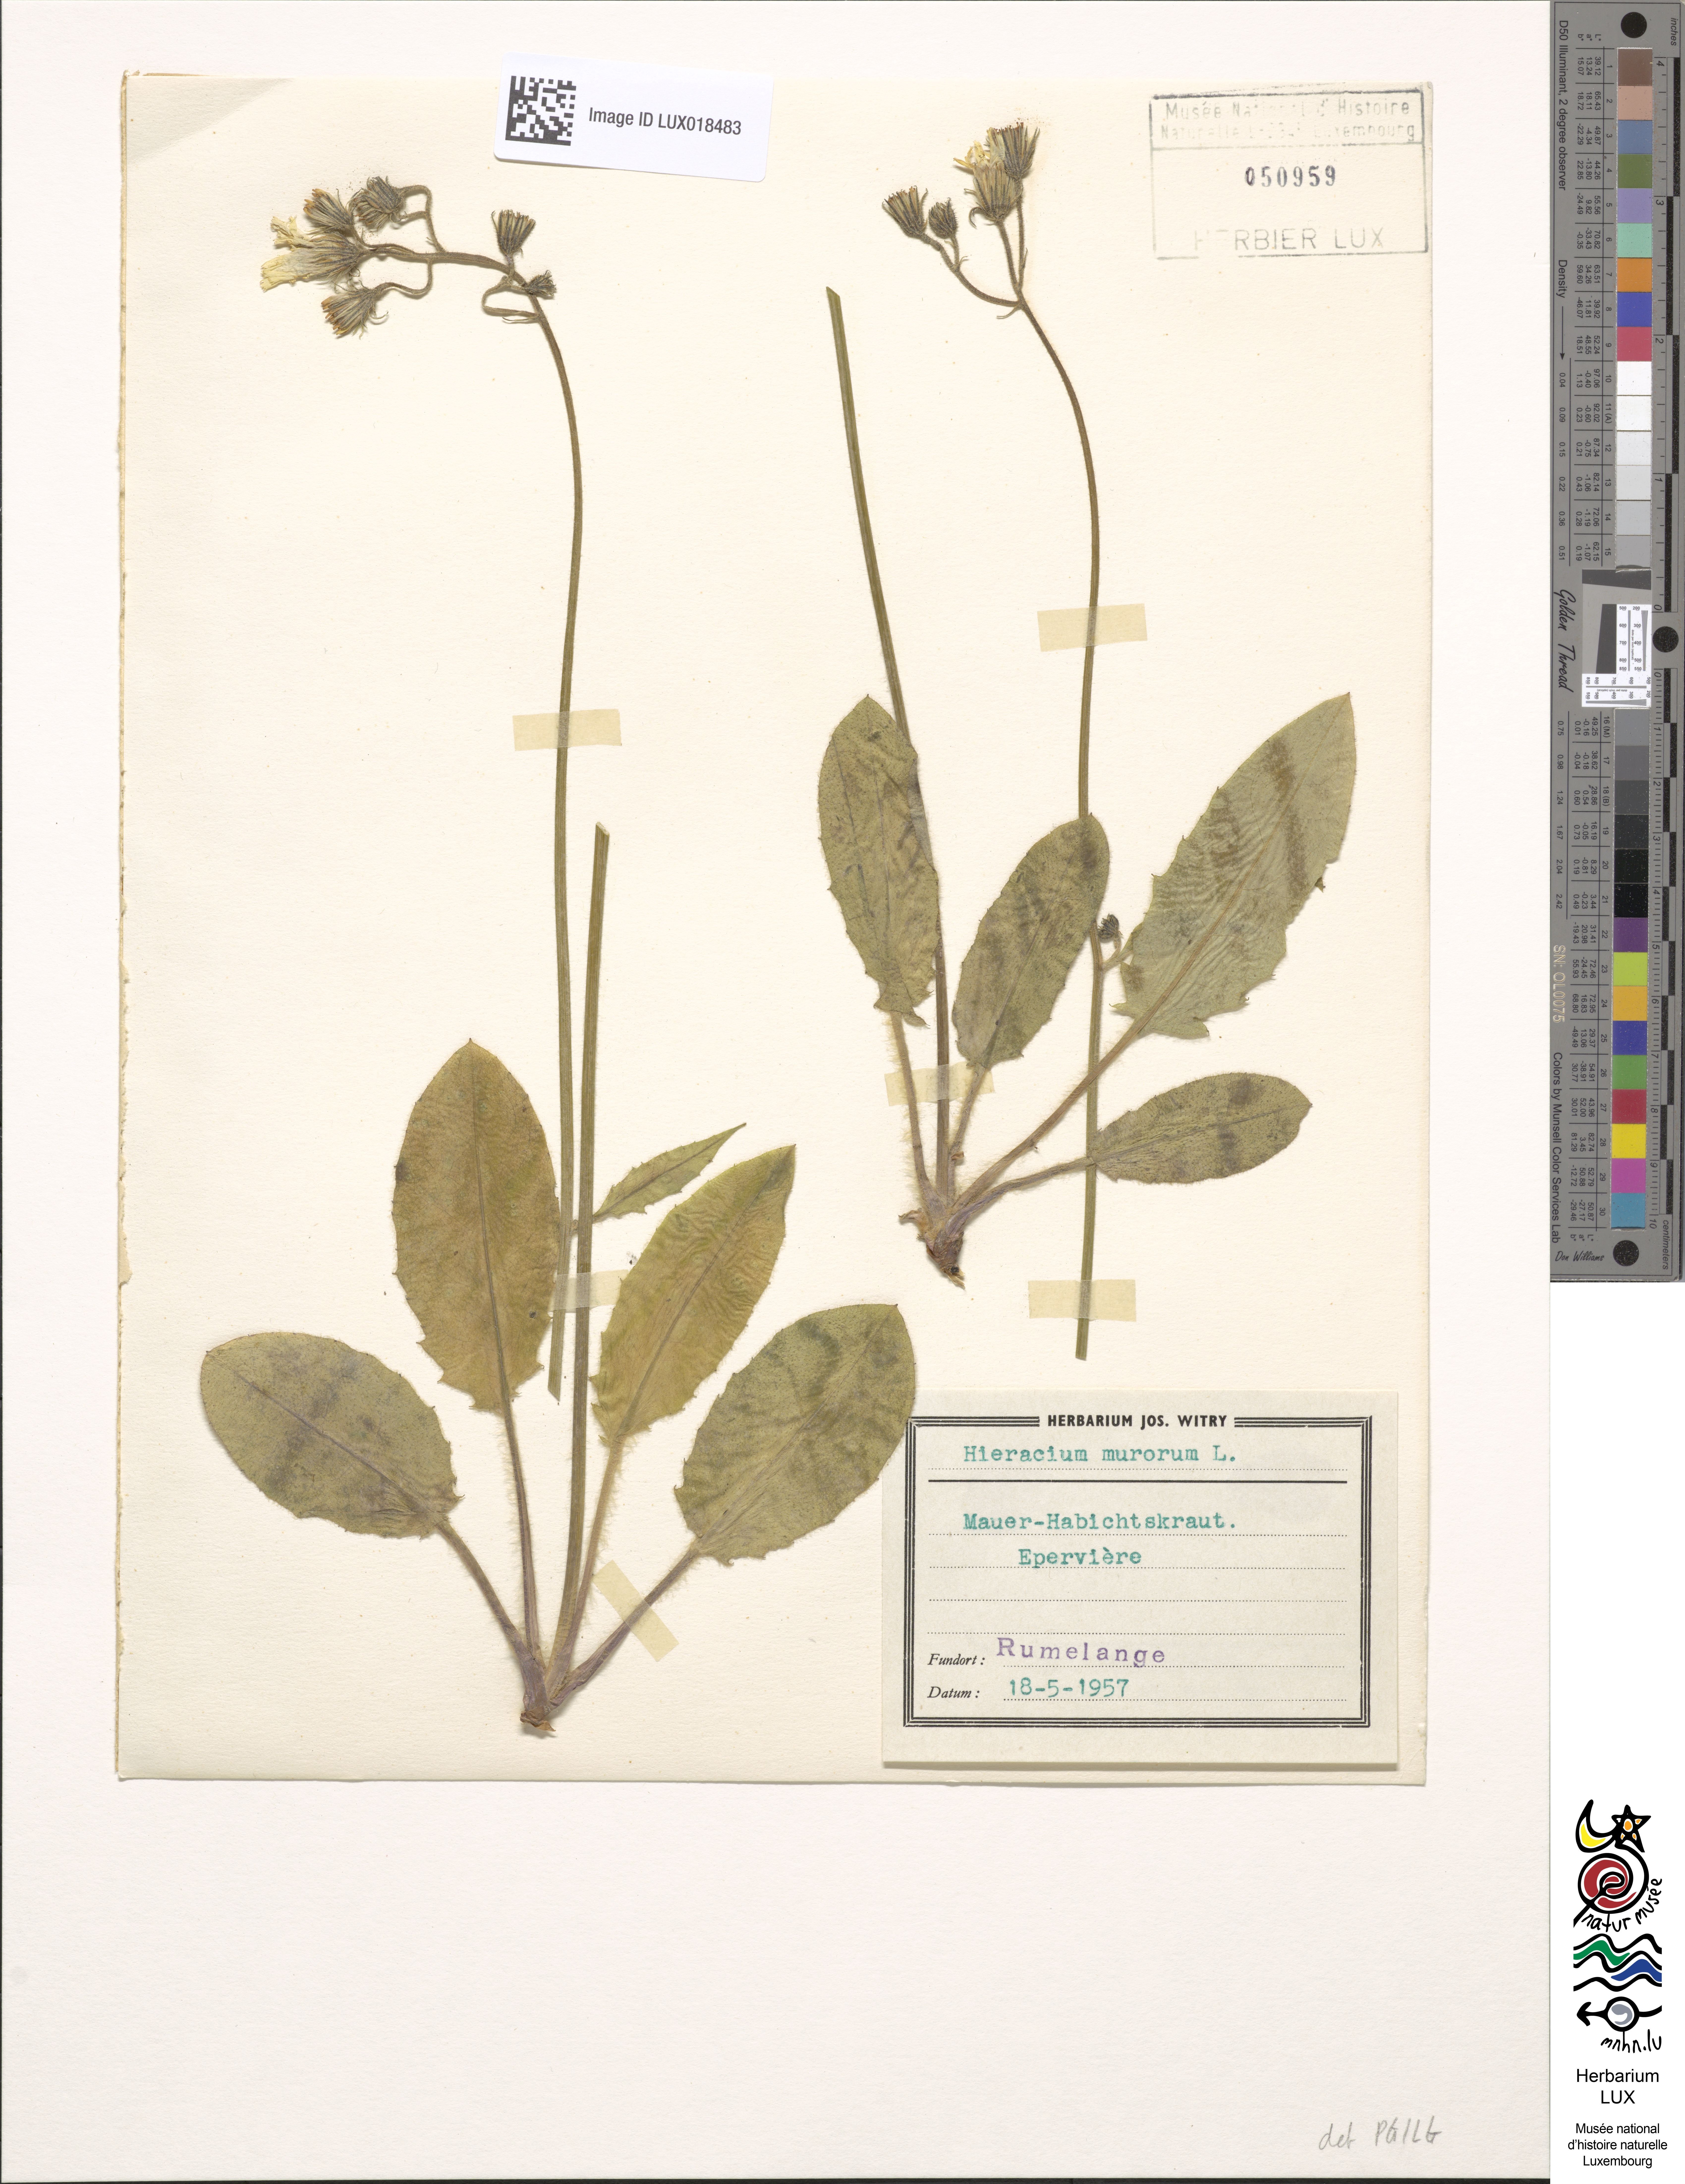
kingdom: Plantae
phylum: Tracheophyta
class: Magnoliopsida
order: Asterales
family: Asteraceae
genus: Hieracium
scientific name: Hieracium murorum
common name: Wall hawkweed
